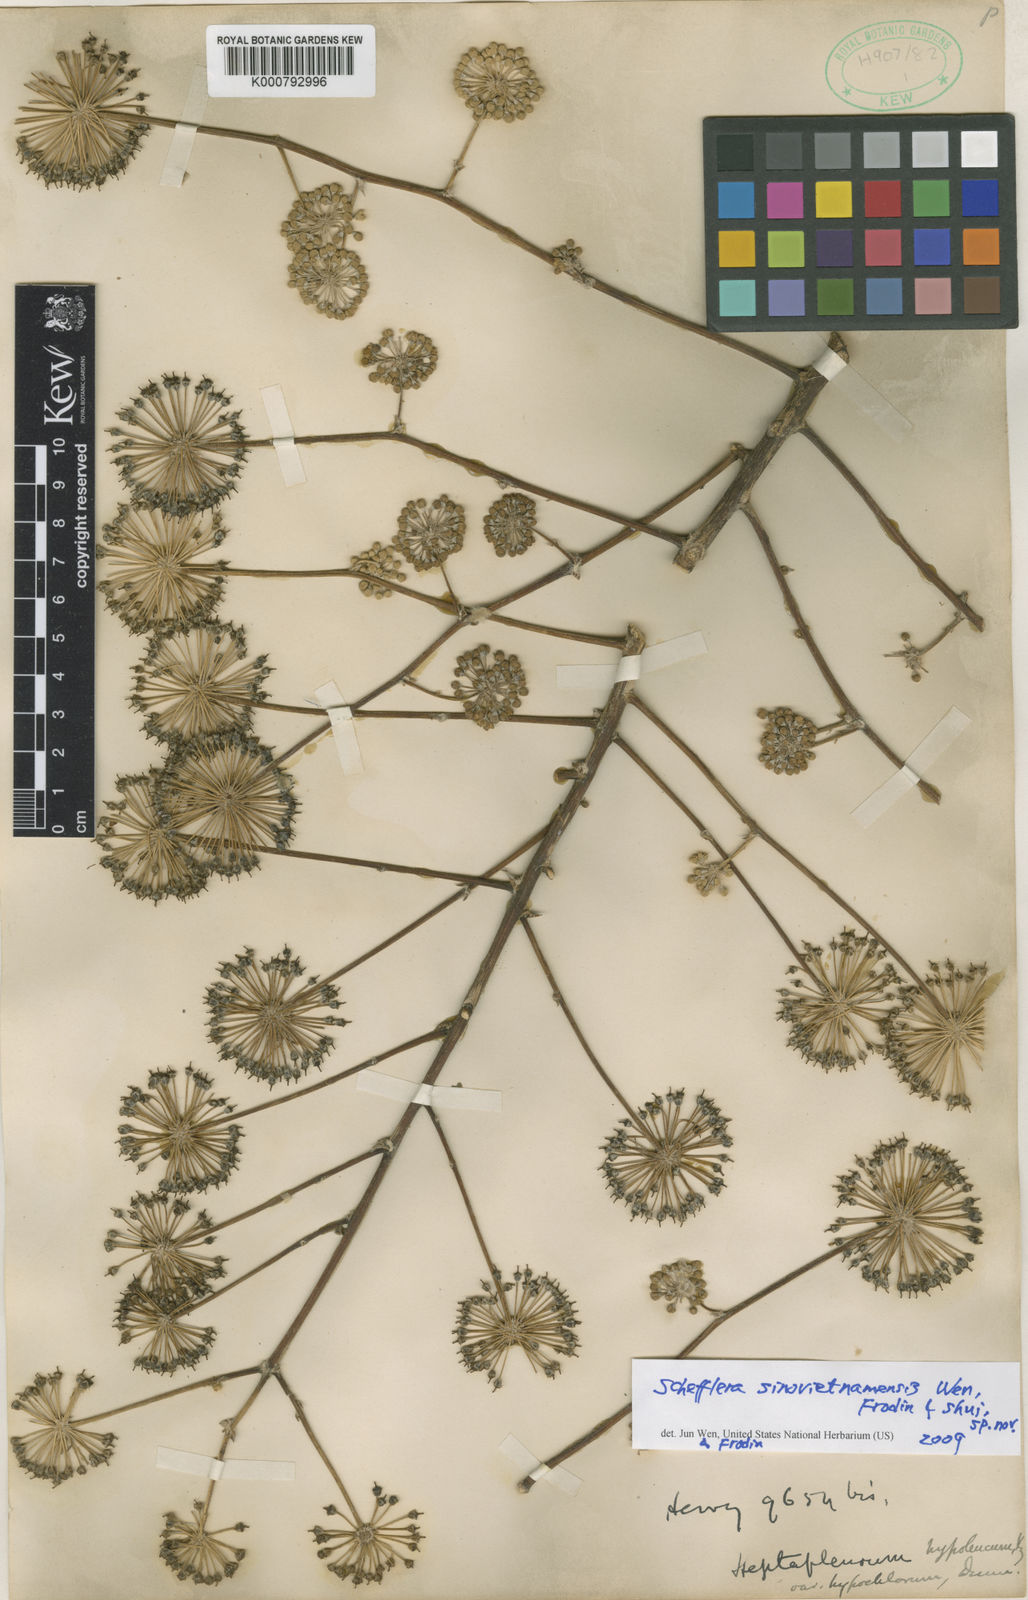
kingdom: Plantae
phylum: Tracheophyta
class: Magnoliopsida
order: Apiales
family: Araliaceae
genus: Schefflera
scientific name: Schefflera
